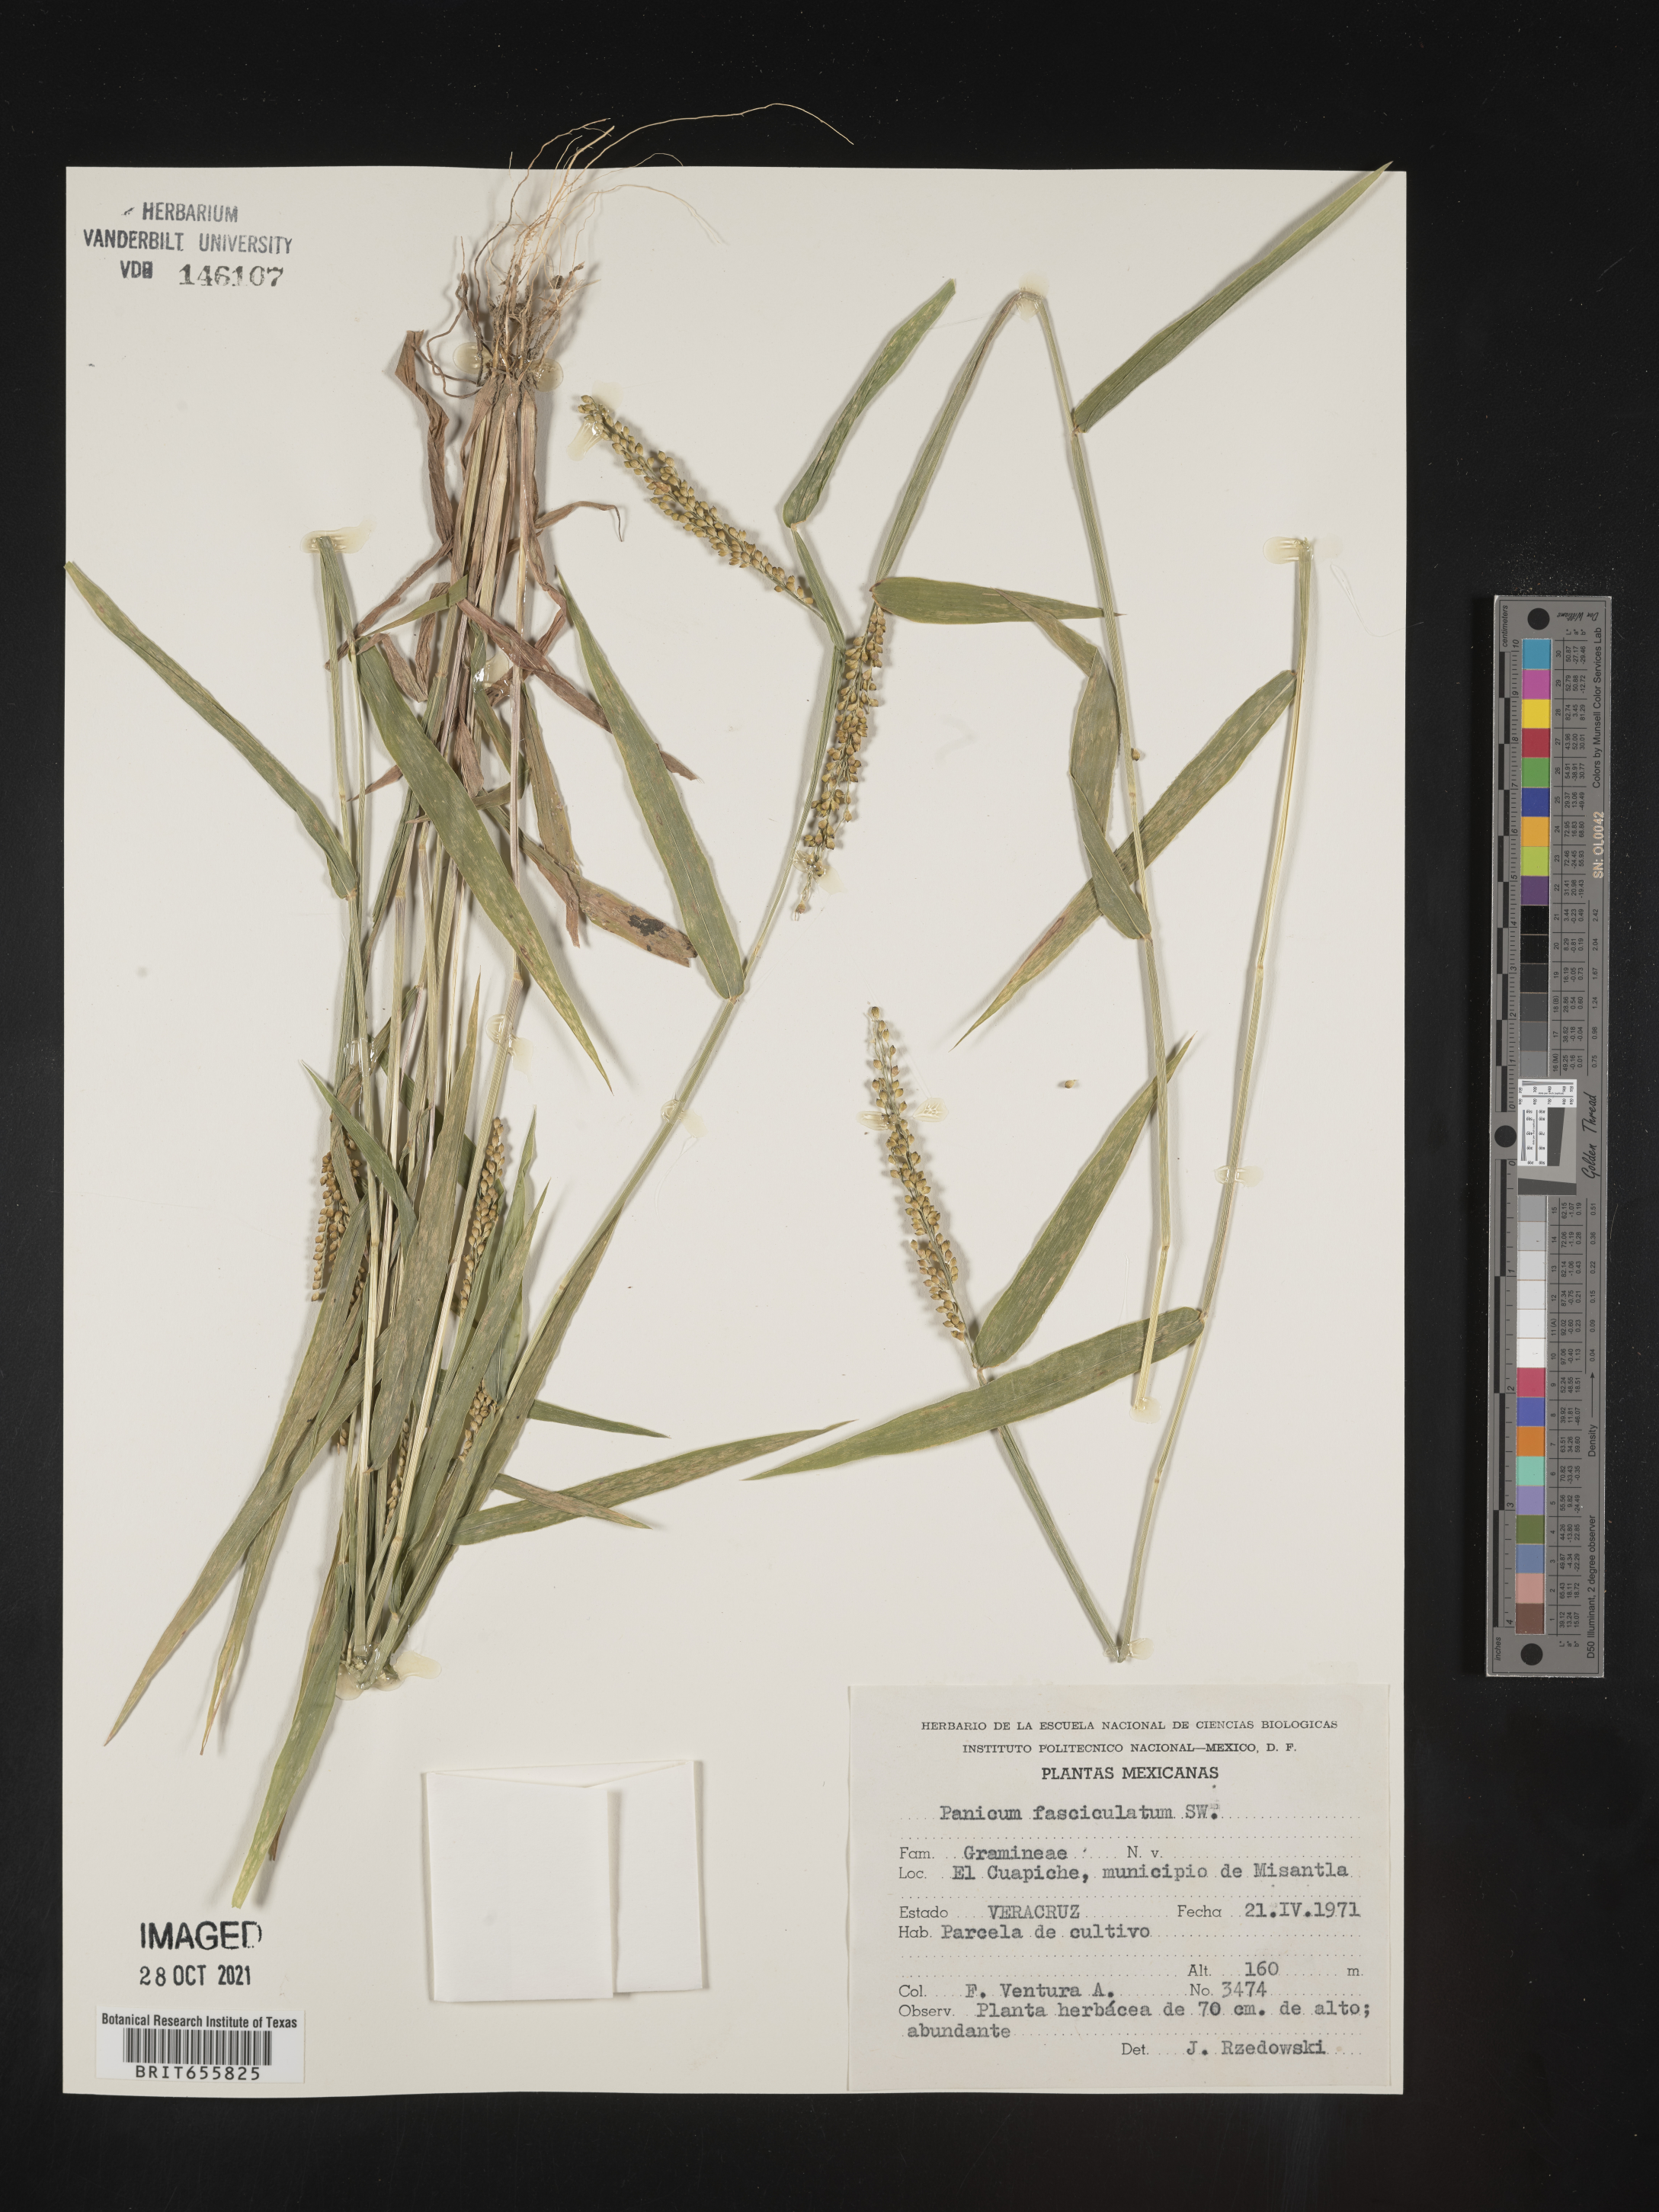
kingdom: Plantae
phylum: Tracheophyta
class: Liliopsida
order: Poales
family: Poaceae
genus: Panicum
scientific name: Panicum
